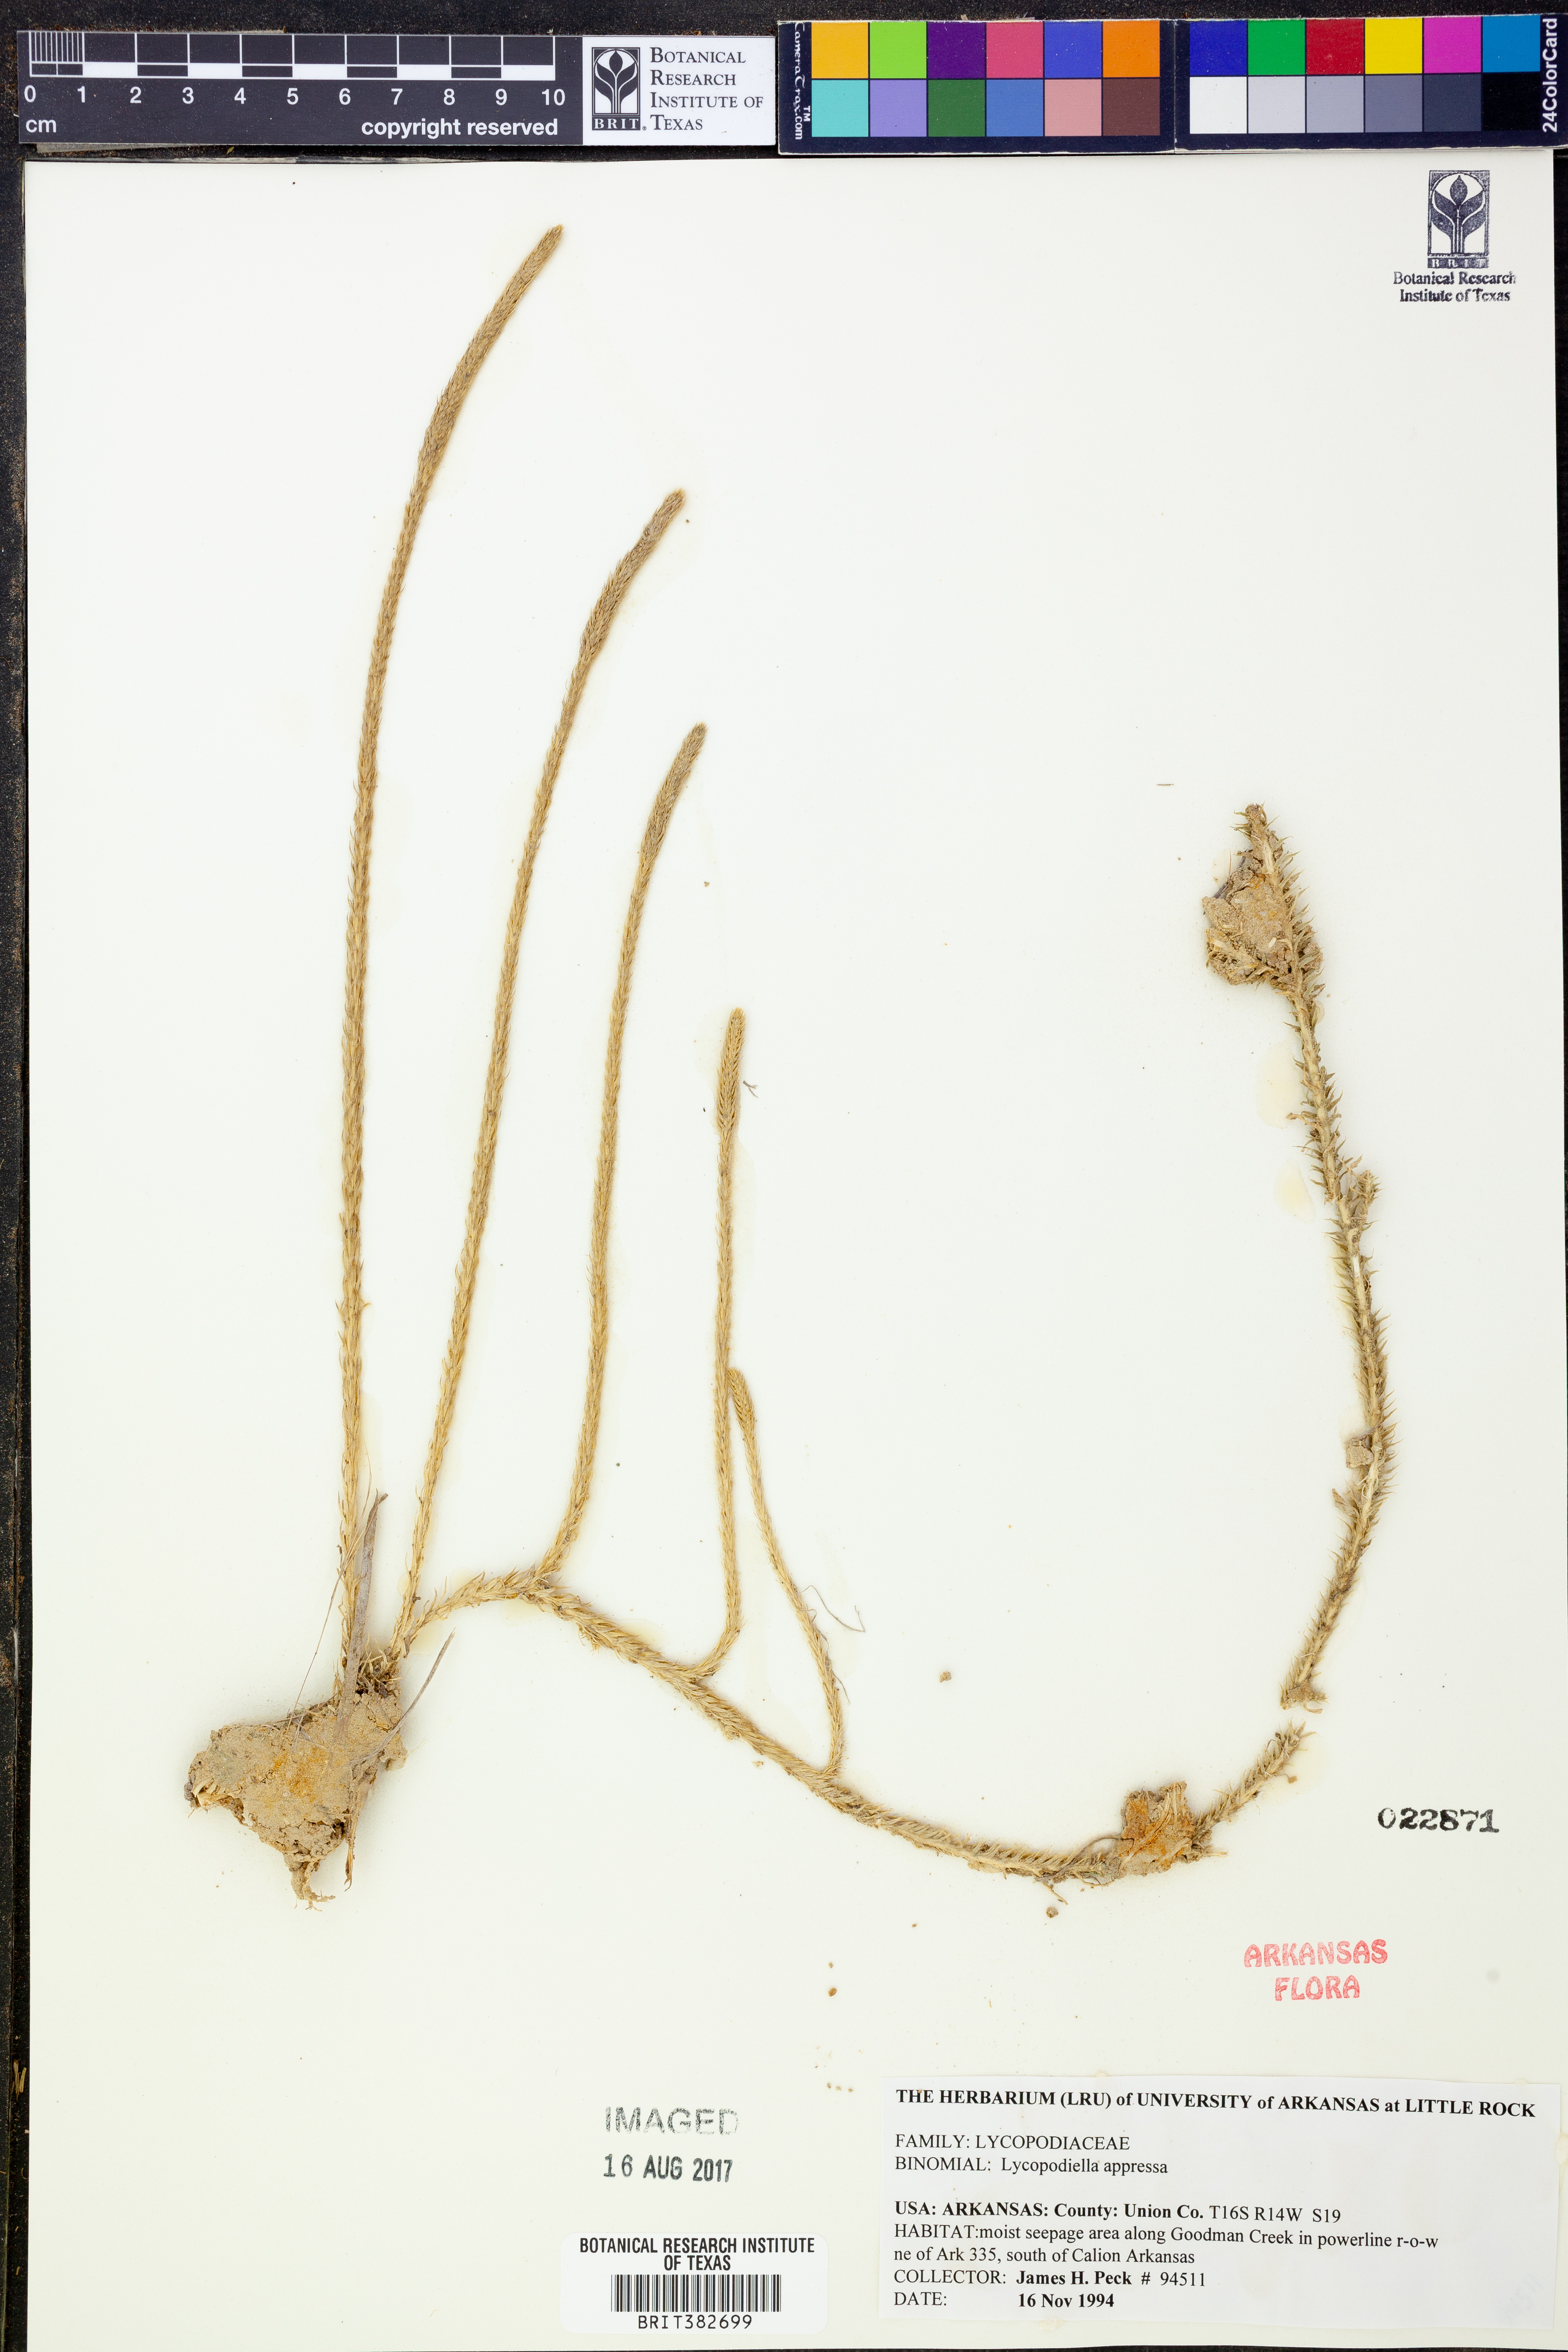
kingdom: Plantae
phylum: Tracheophyta
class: Lycopodiopsida
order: Lycopodiales
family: Lycopodiaceae
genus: Lycopodiella
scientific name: Lycopodiella appressa
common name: Appressed bog clubmoss
